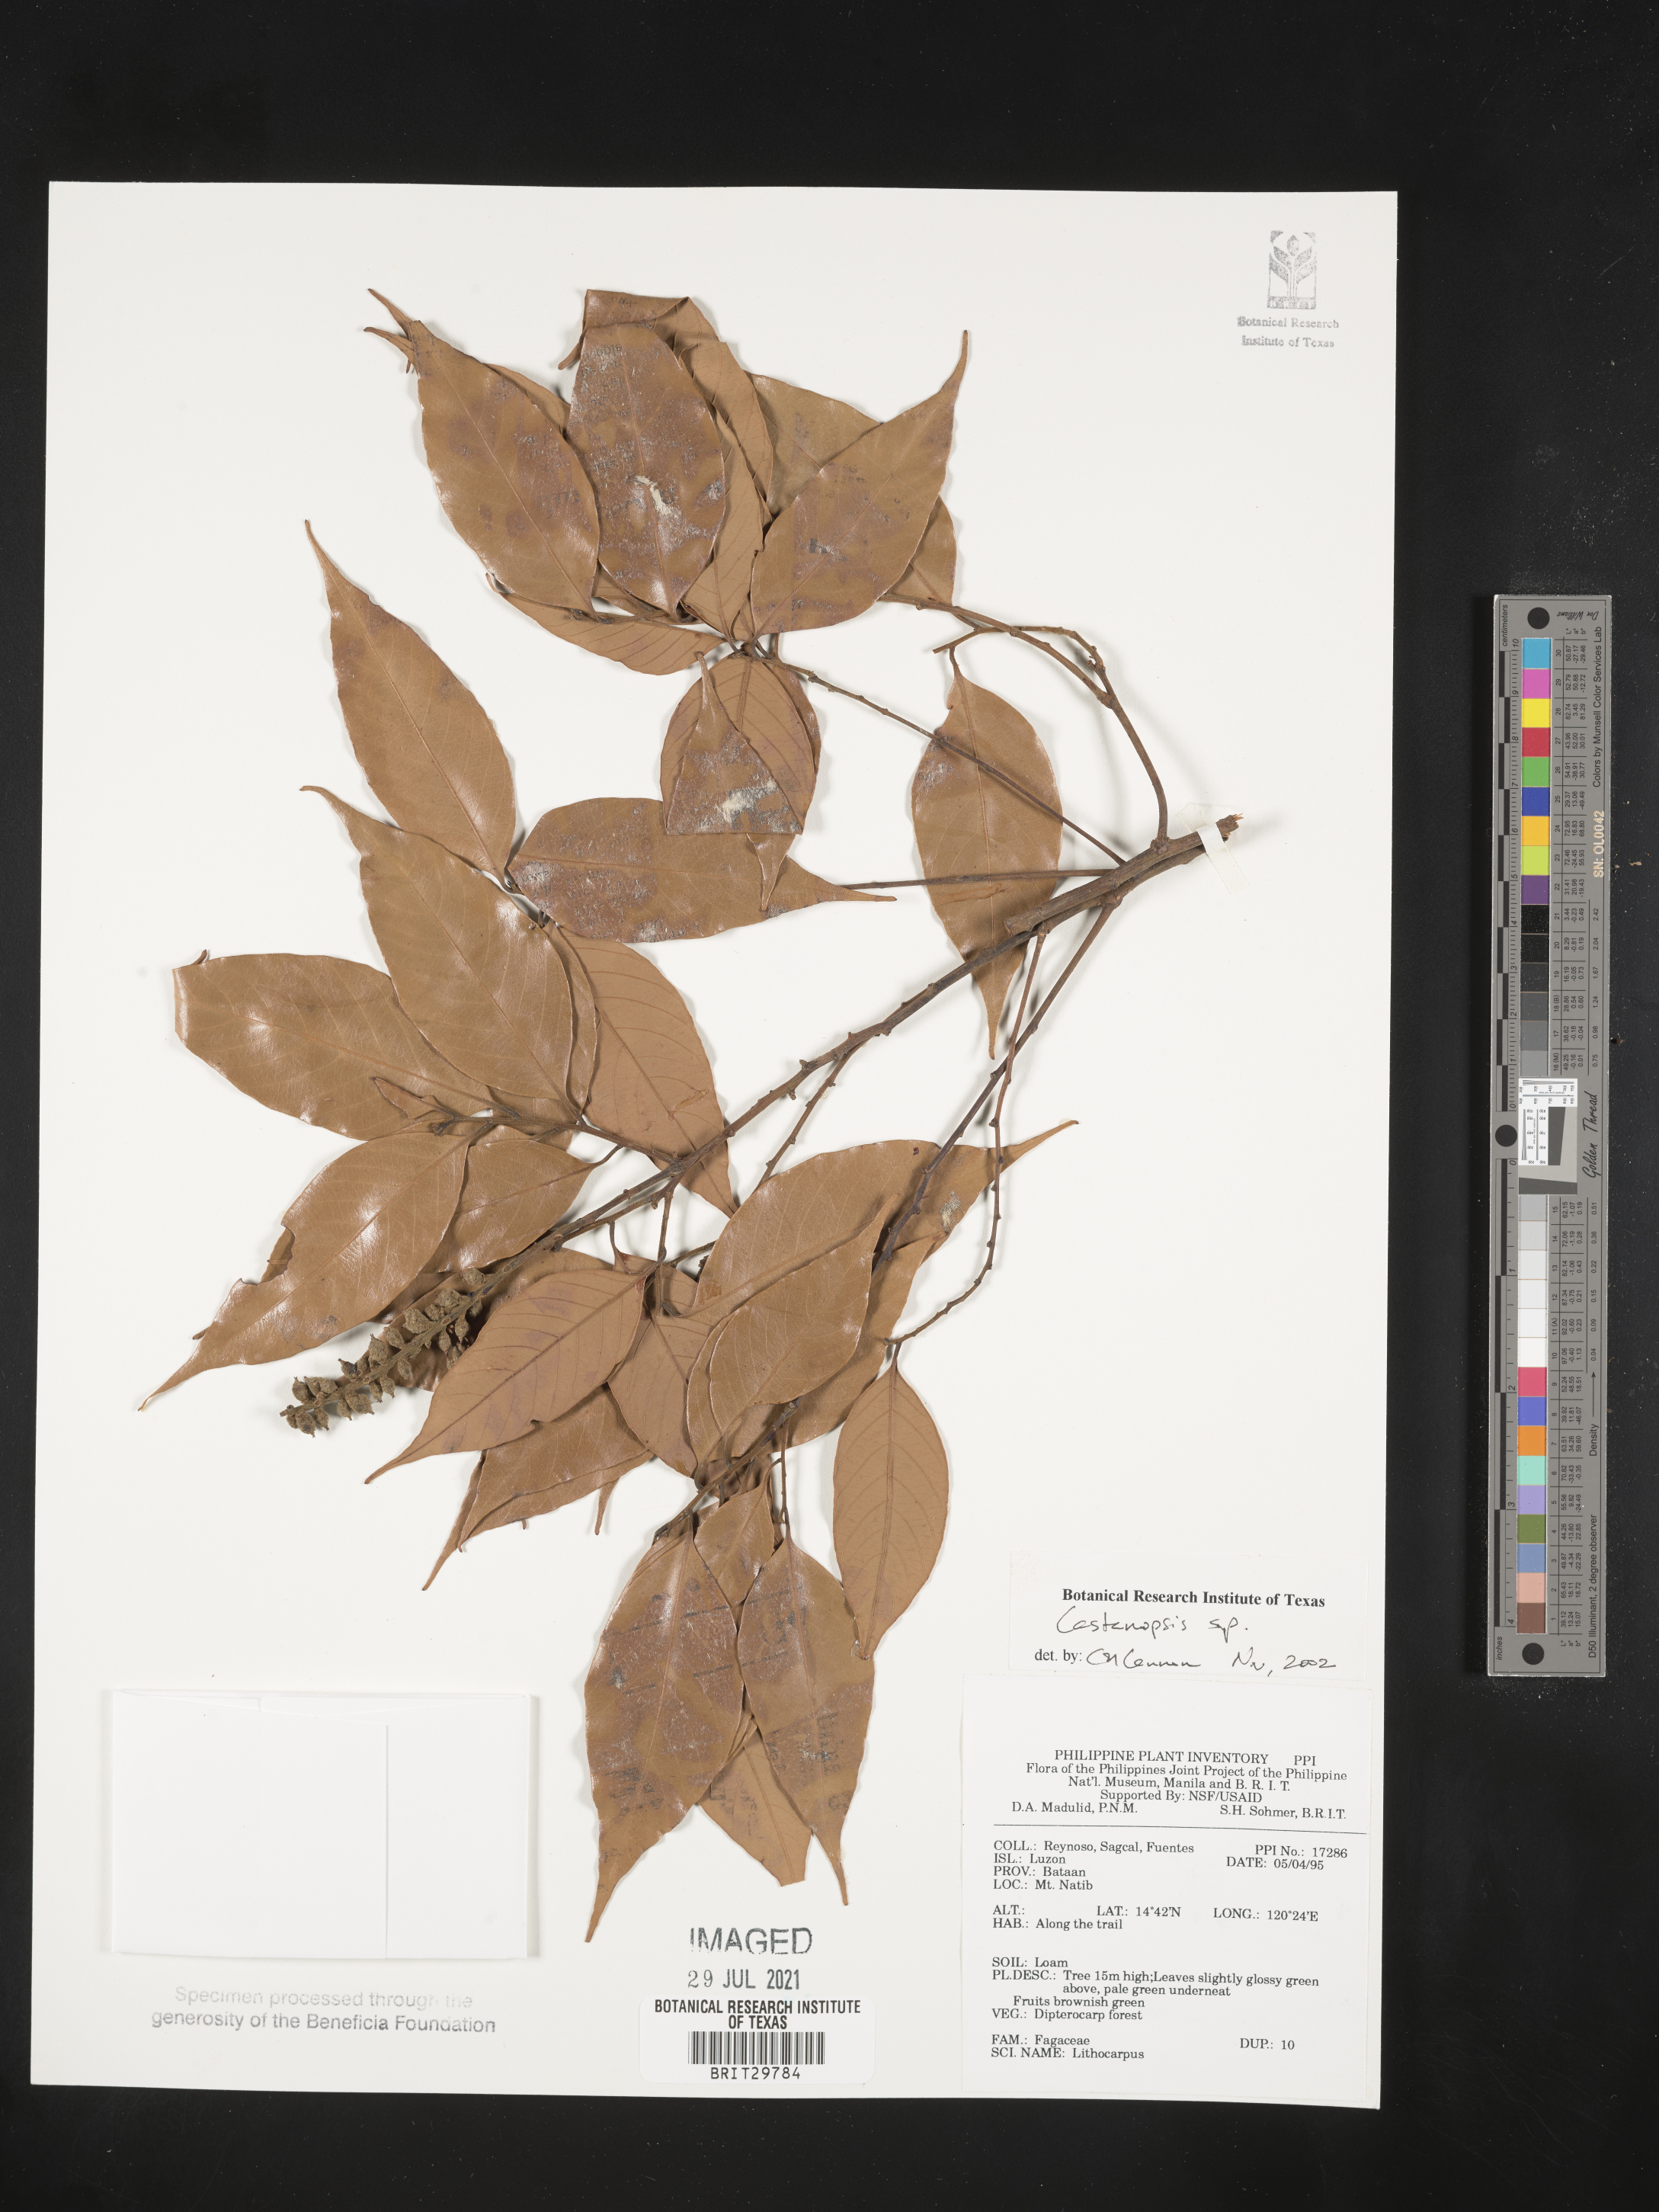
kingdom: Plantae
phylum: Tracheophyta
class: Magnoliopsida
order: Fagales
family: Fagaceae
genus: Castanopsis
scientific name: Castanopsis
